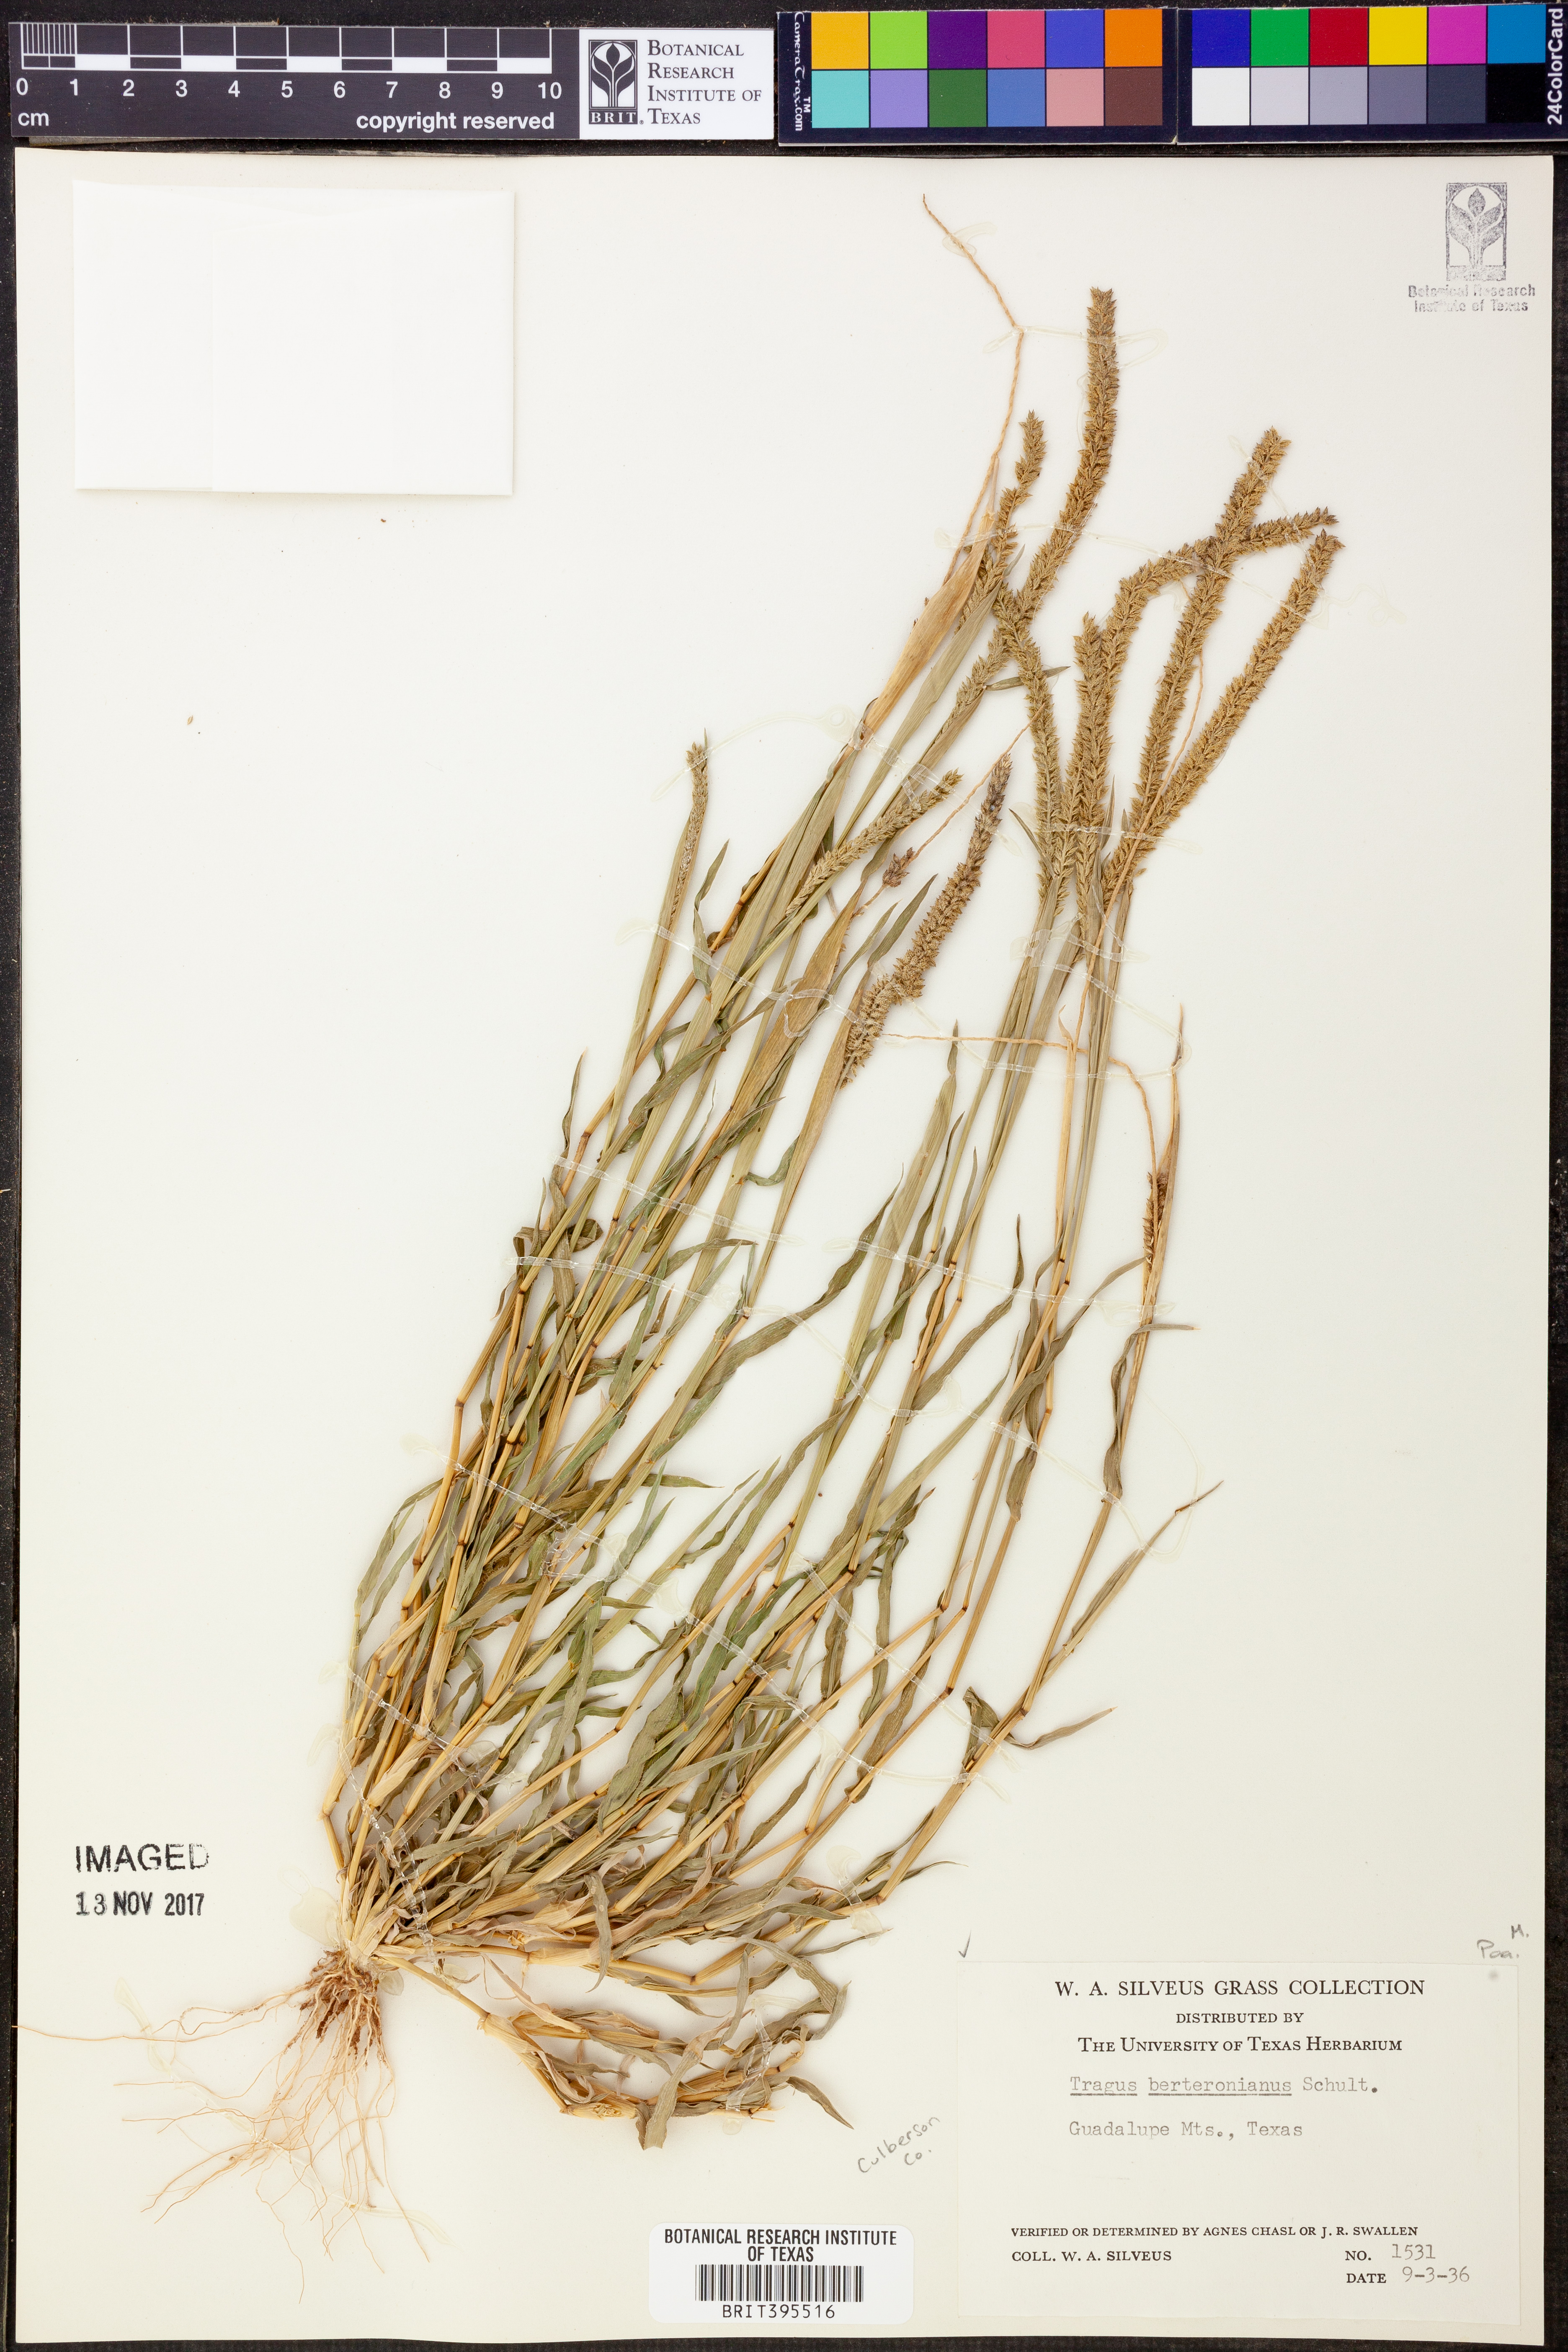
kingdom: Plantae
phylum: Tracheophyta
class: Liliopsida
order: Poales
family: Poaceae
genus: Tragus
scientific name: Tragus berteronianus
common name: African bur-grass
